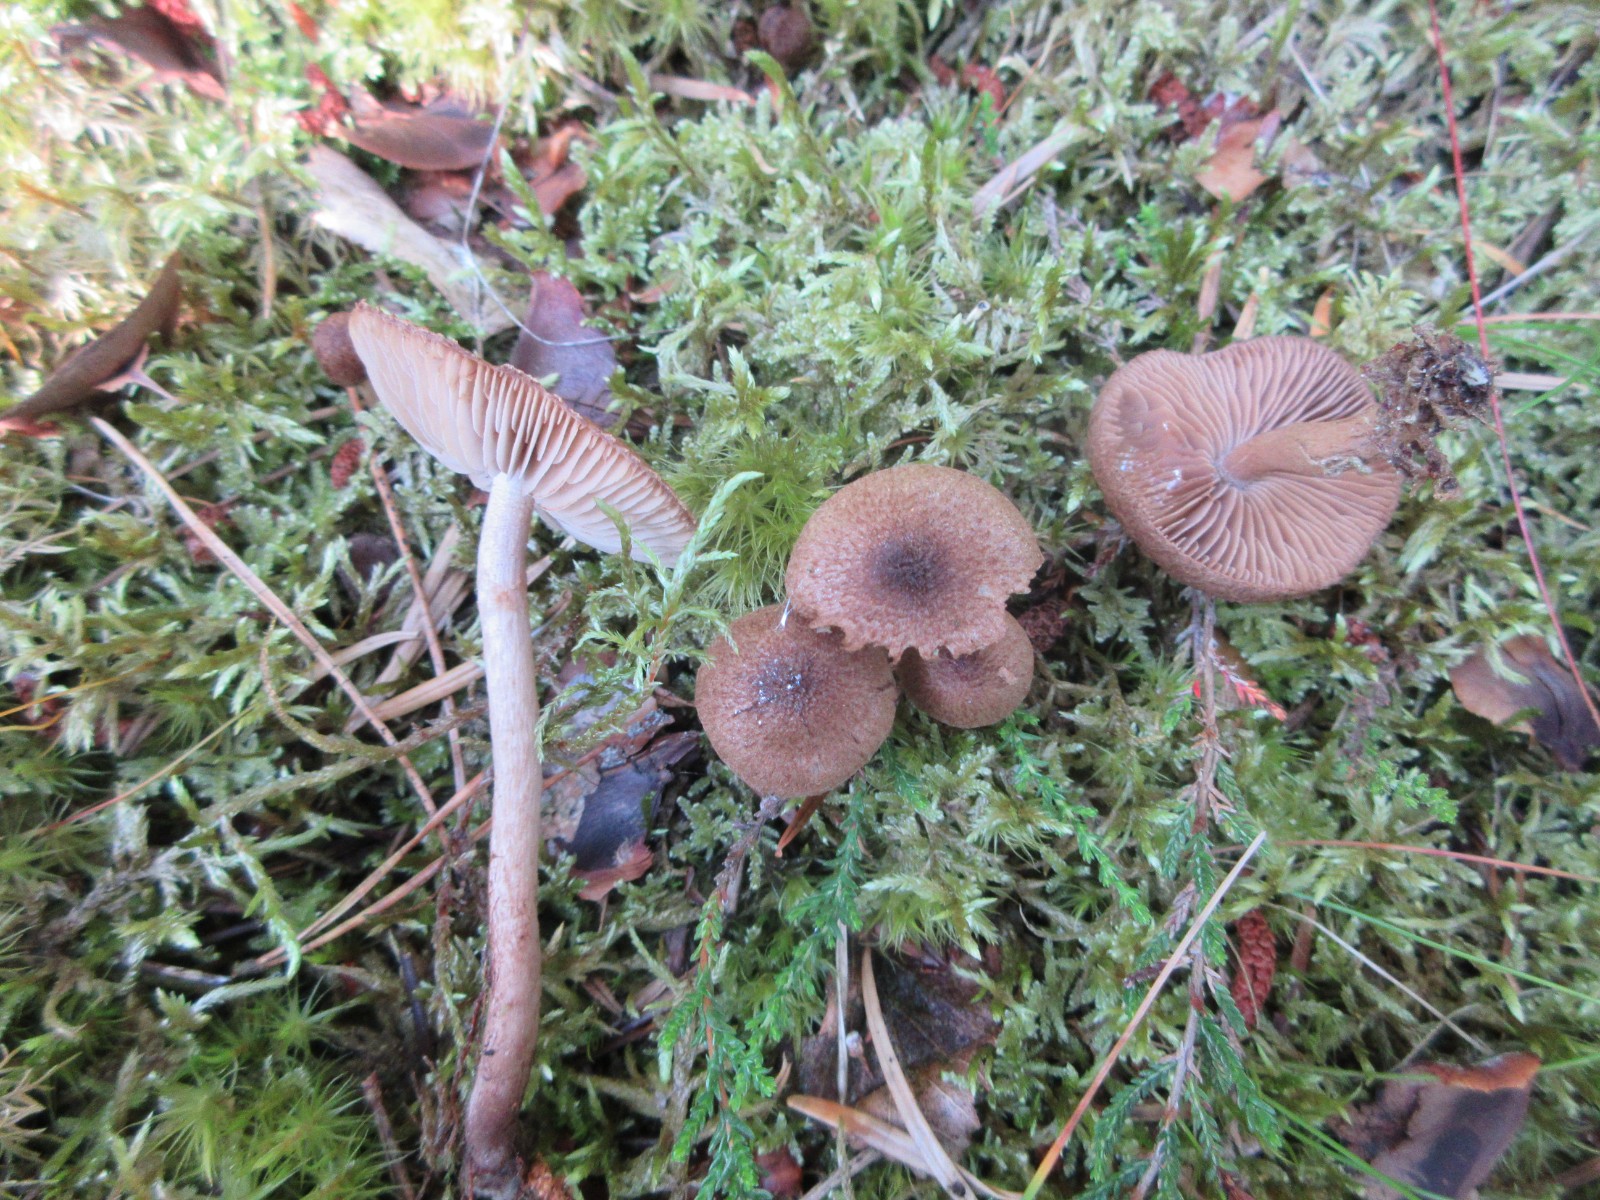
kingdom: Fungi
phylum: Basidiomycota
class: Agaricomycetes
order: Agaricales
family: Inocybaceae
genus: Inocybe
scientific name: Inocybe
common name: trævlhat
